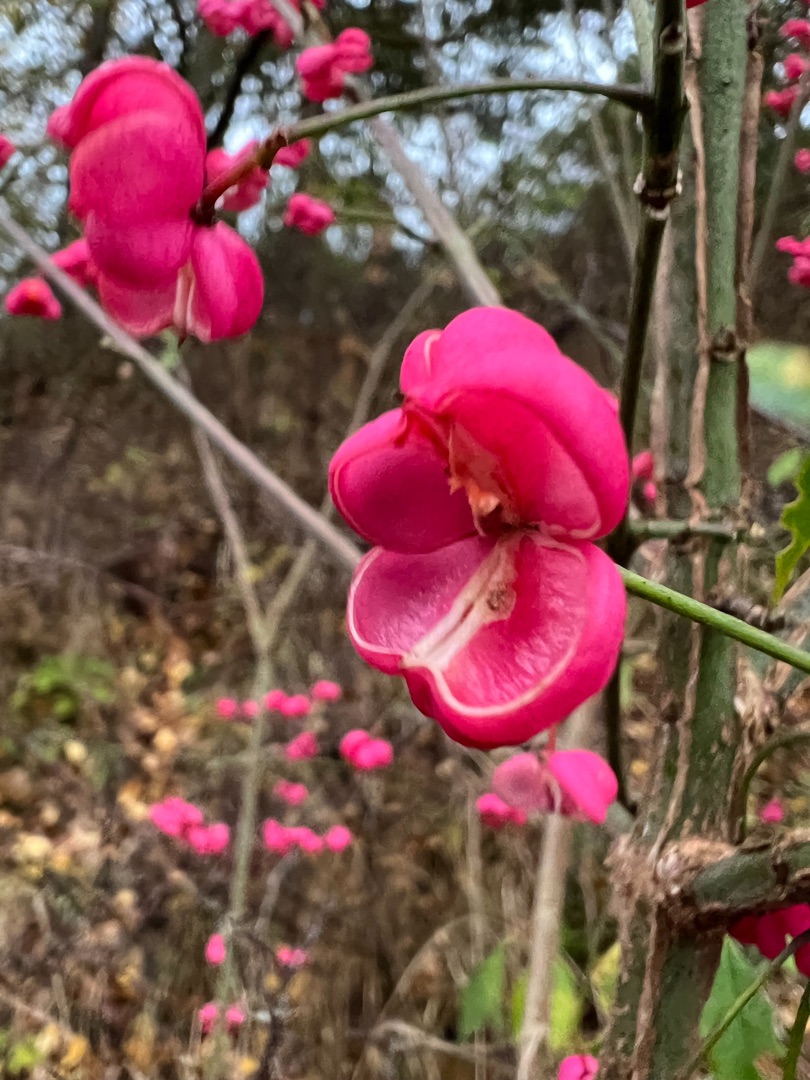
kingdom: Plantae
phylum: Tracheophyta
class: Magnoliopsida
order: Celastrales
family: Celastraceae
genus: Euonymus
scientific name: Euonymus europaeus
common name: Benved
